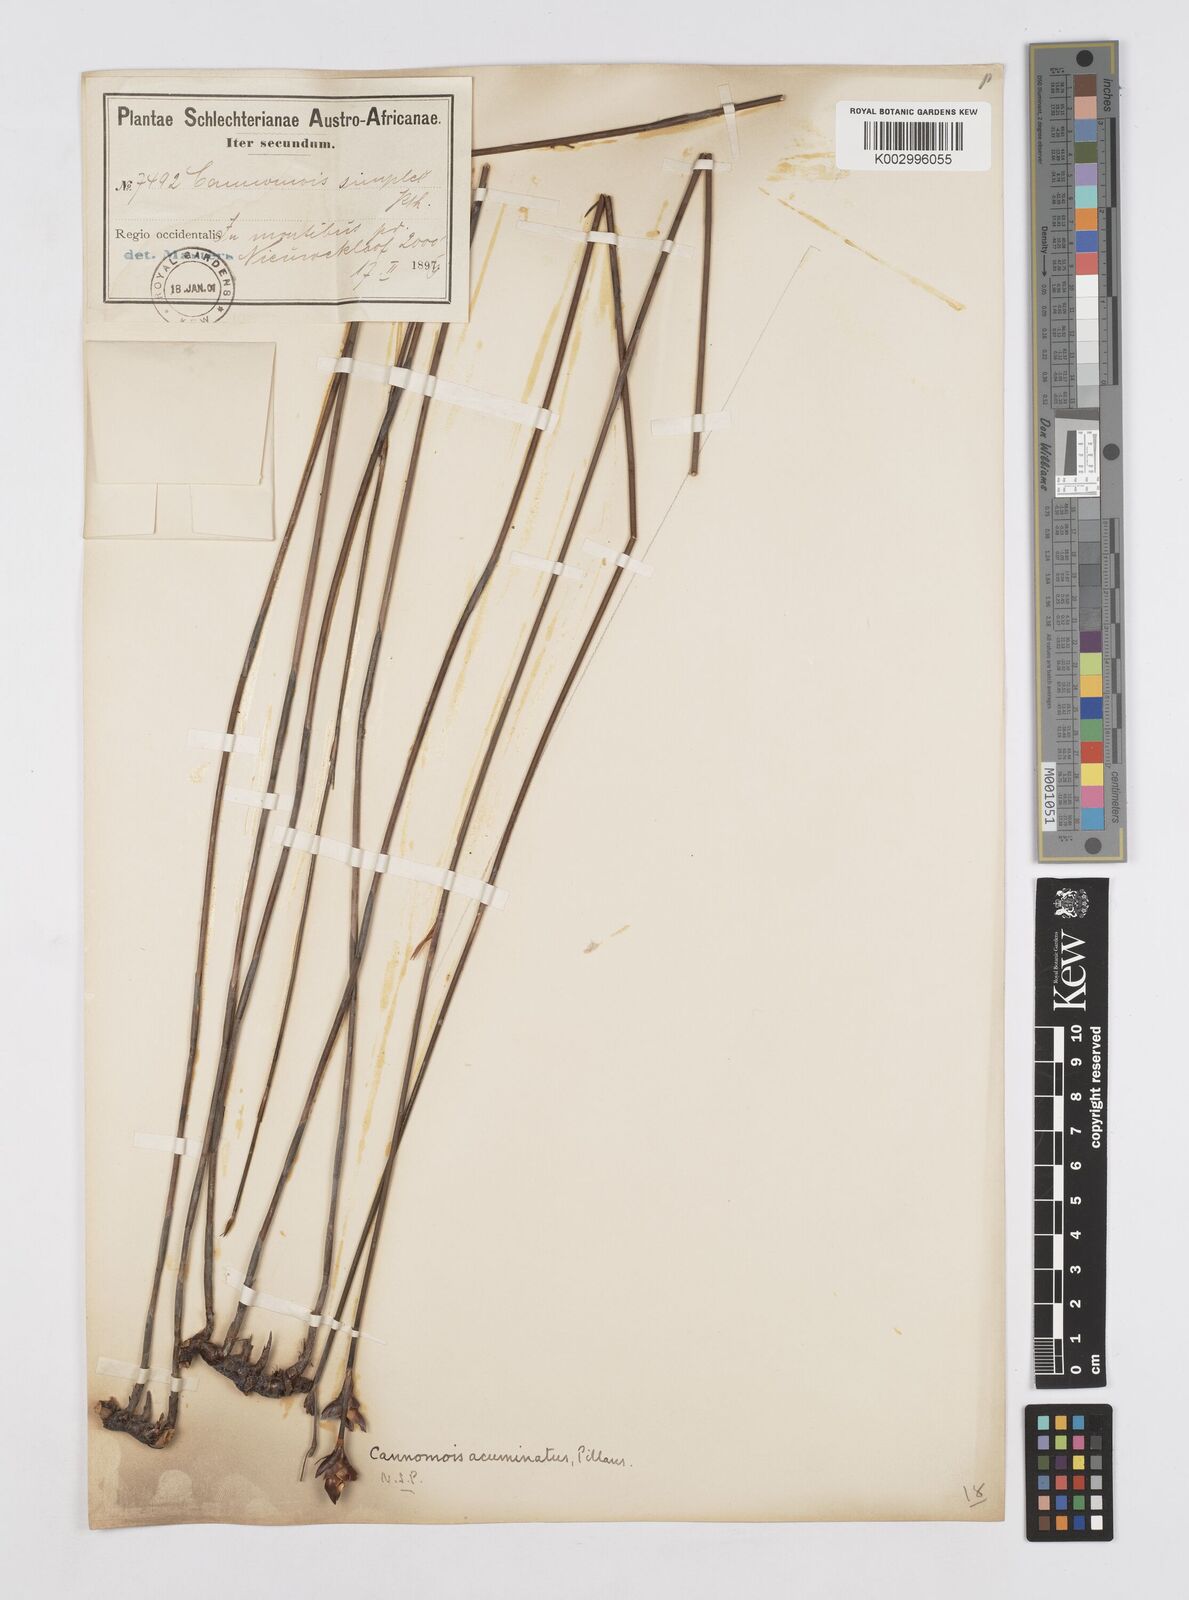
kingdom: Plantae
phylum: Tracheophyta
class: Liliopsida
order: Poales
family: Restionaceae
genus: Cannomois
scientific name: Cannomois parviflora
